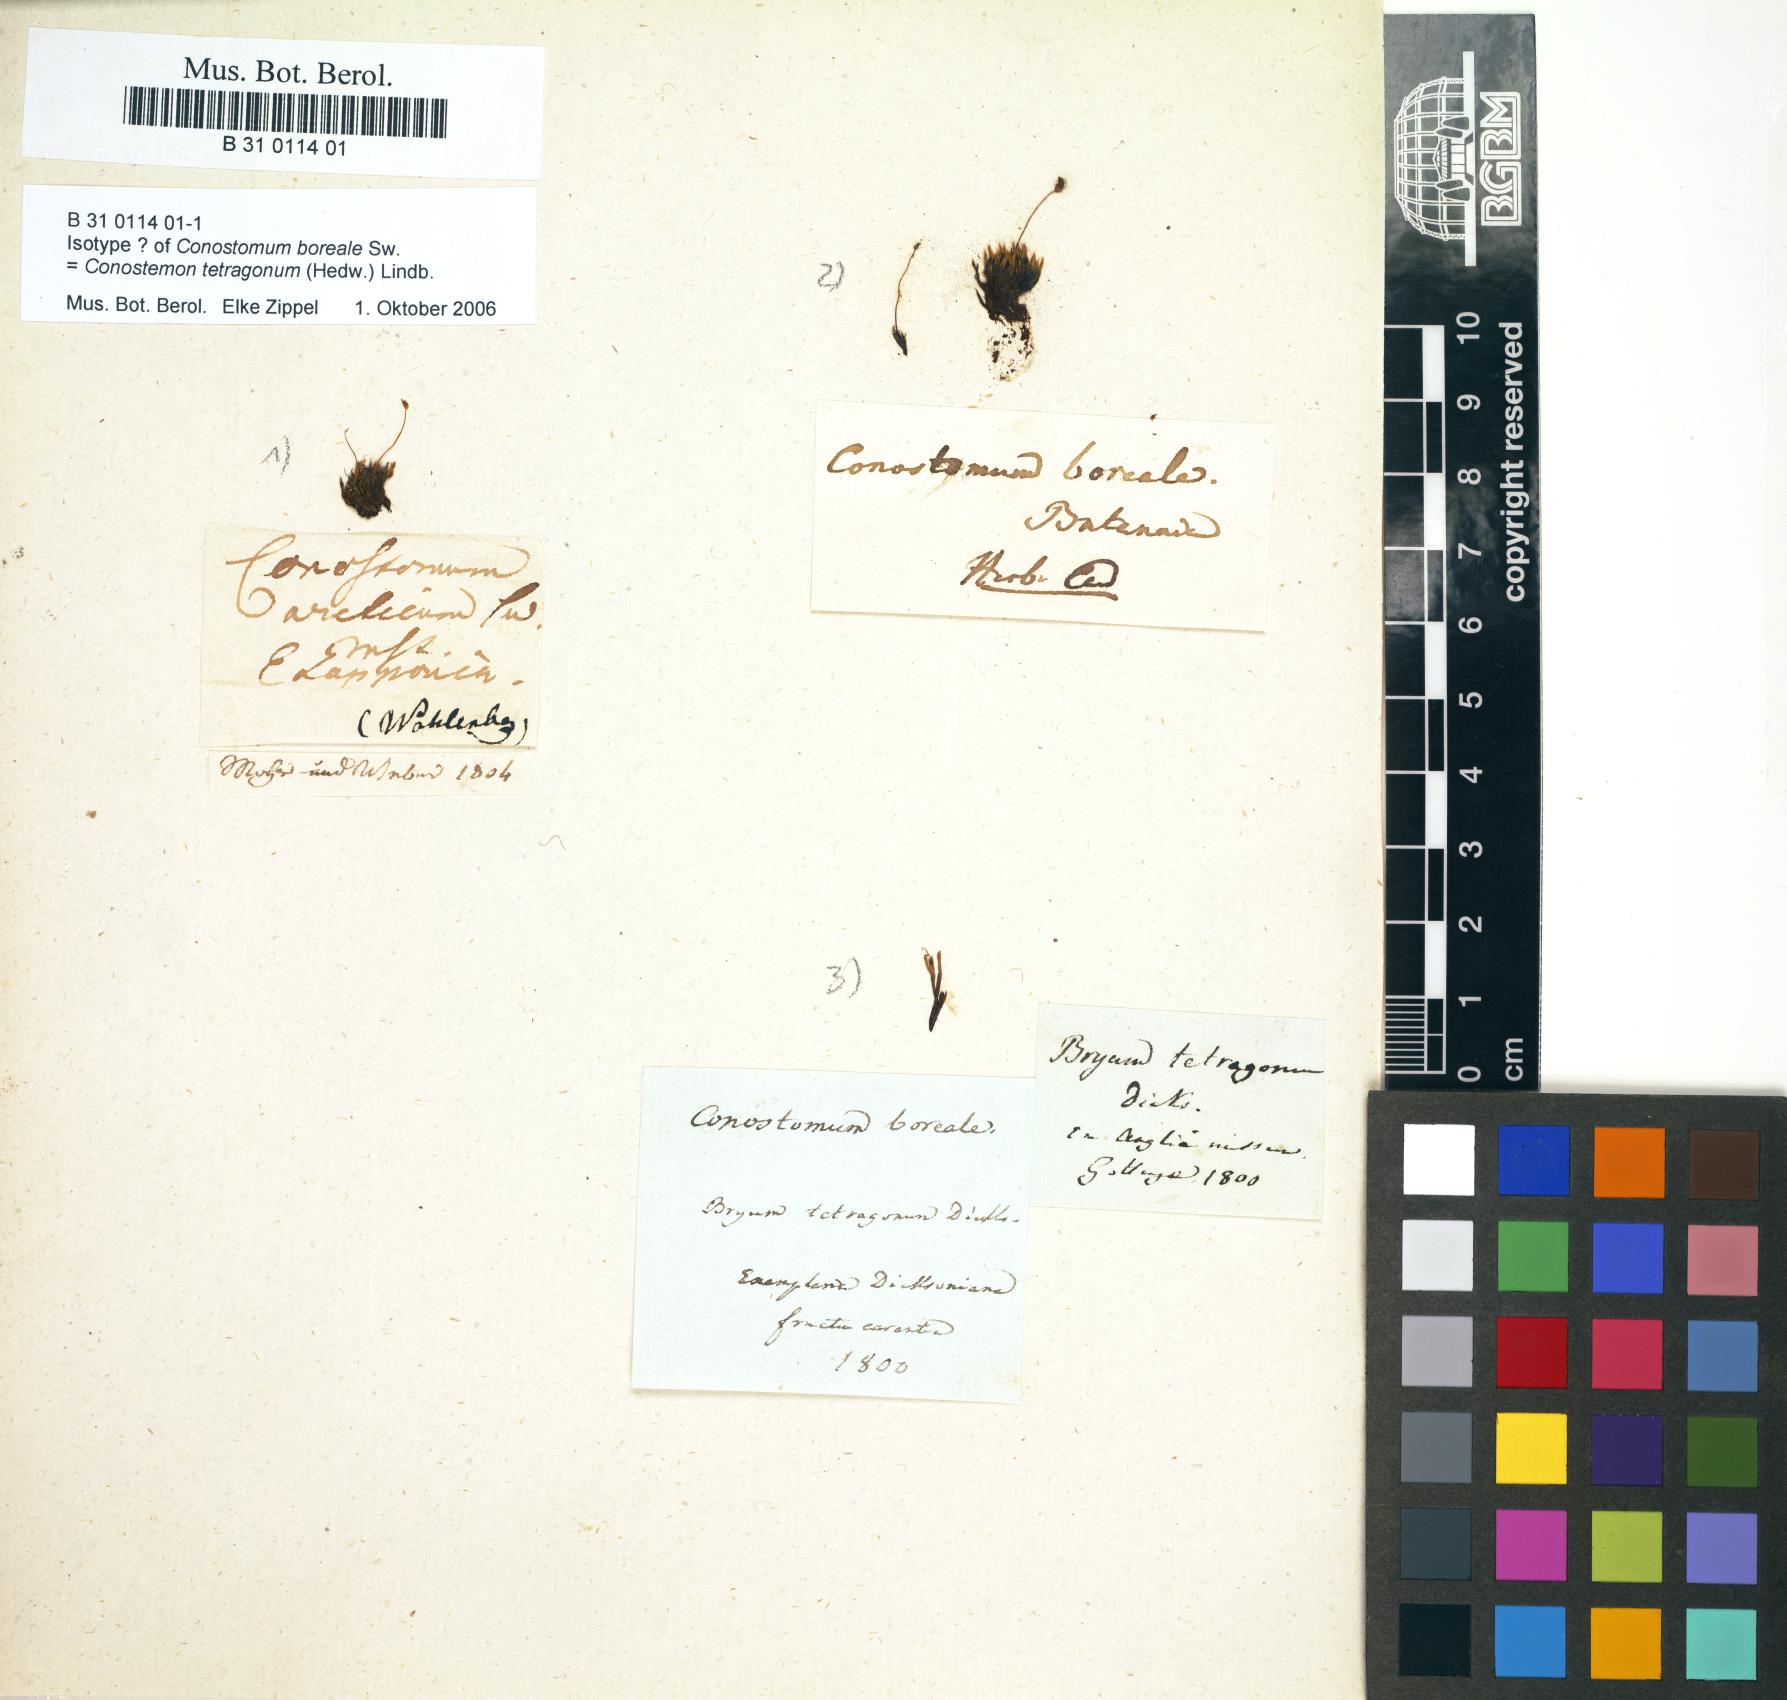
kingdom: Plantae
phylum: Bryophyta
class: Bryopsida
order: Bartramiales
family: Bartramiaceae
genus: Conostomum
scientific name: Conostomum tetragonum
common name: Helmet moss
